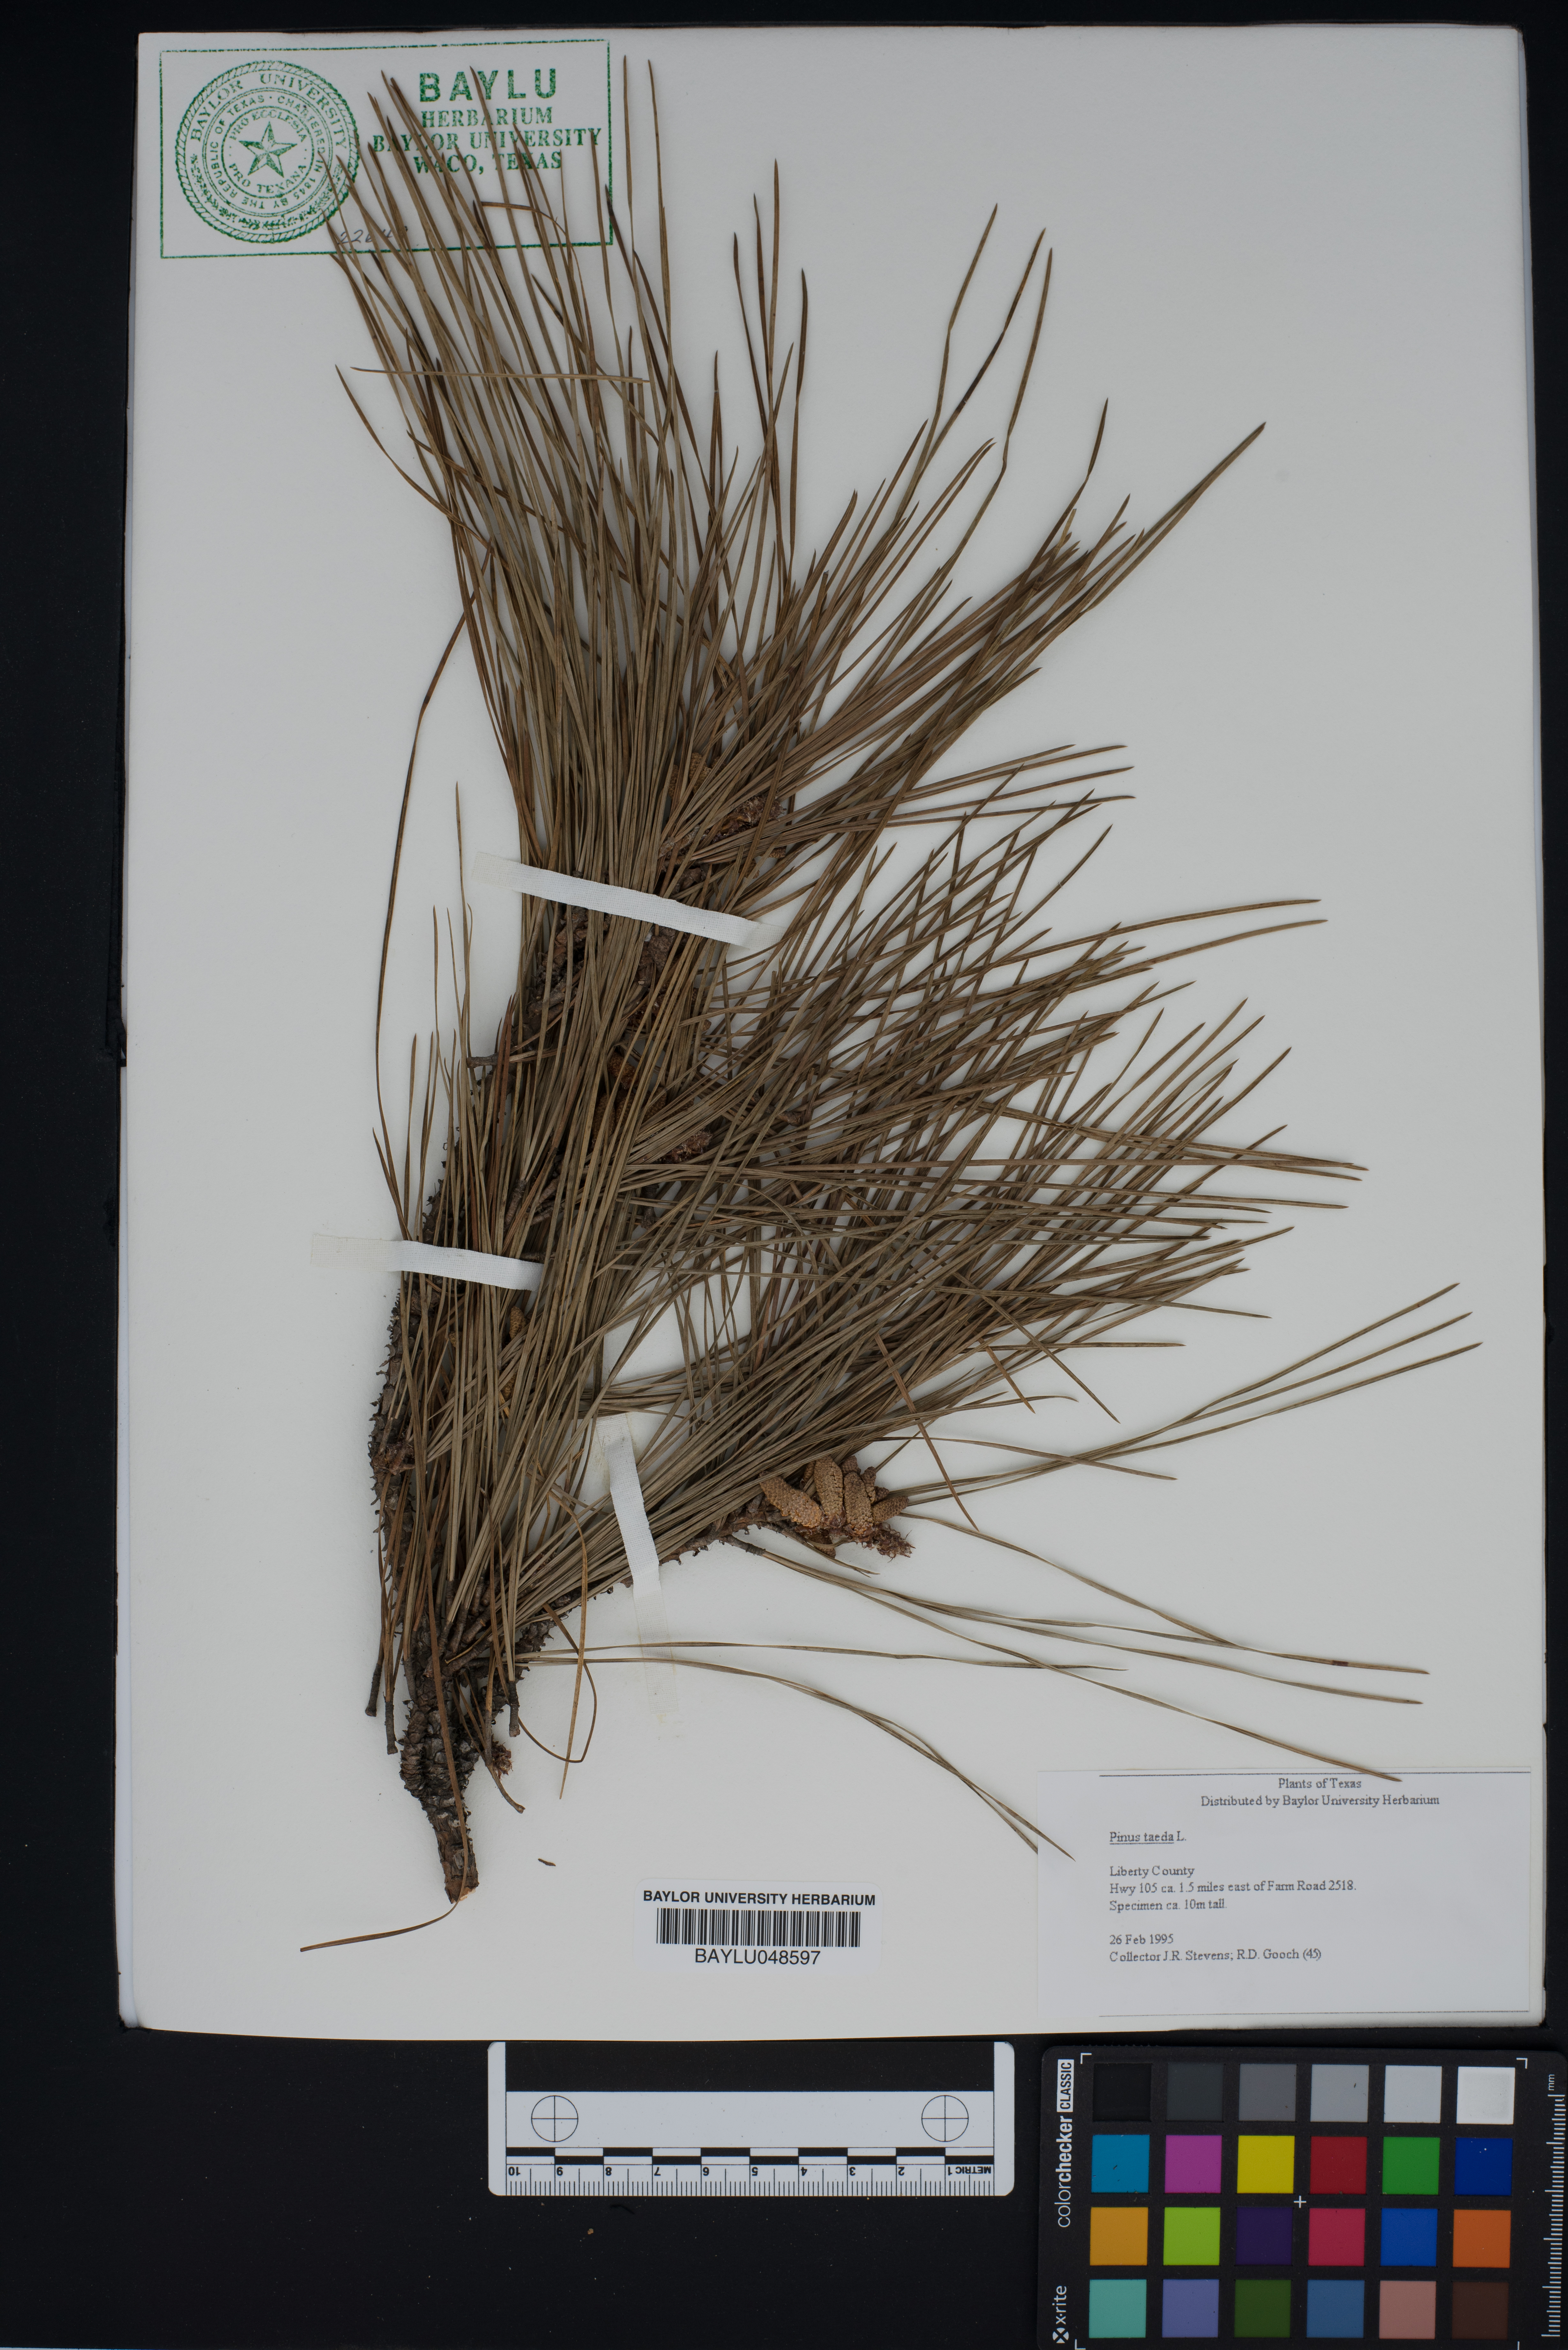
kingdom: Plantae
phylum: Tracheophyta
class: Pinopsida
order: Pinales
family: Pinaceae
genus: Pinus
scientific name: Pinus taeda
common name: Loblolly pine
